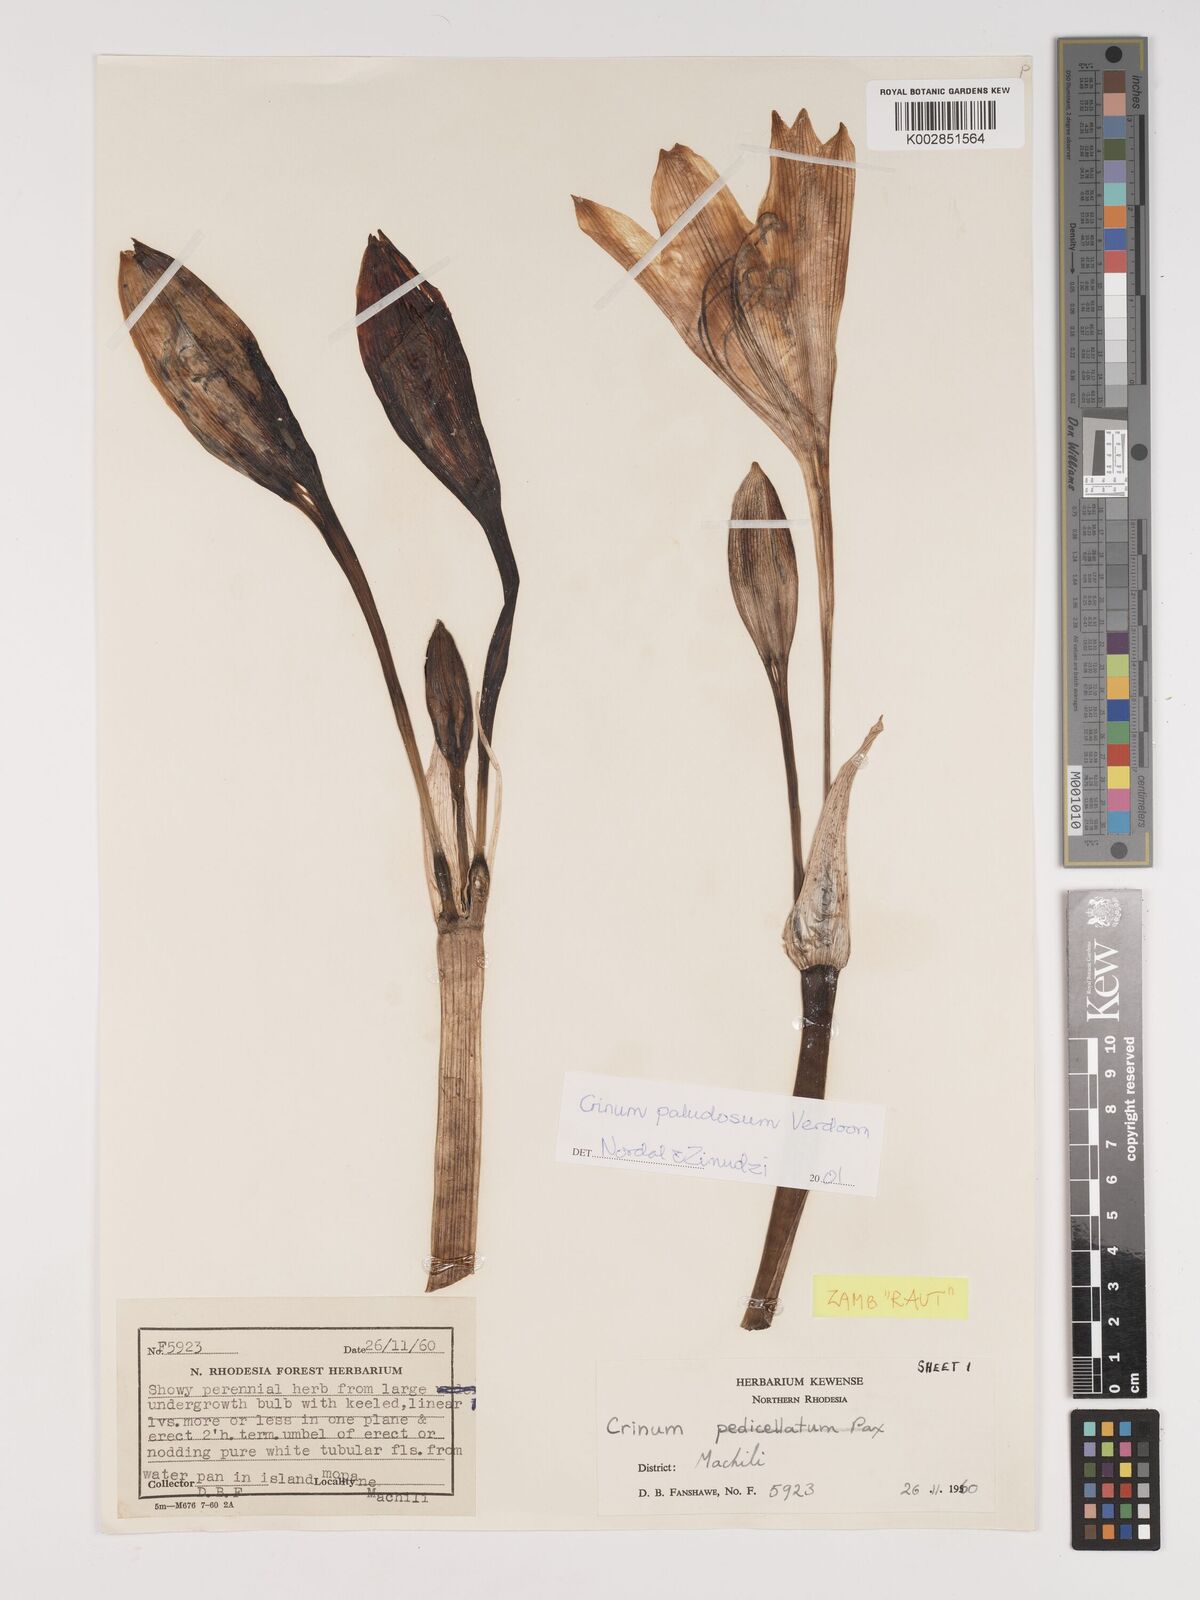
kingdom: Plantae
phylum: Tracheophyta
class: Liliopsida
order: Asparagales
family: Amaryllidaceae
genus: Crinum
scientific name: Crinum paludosum
